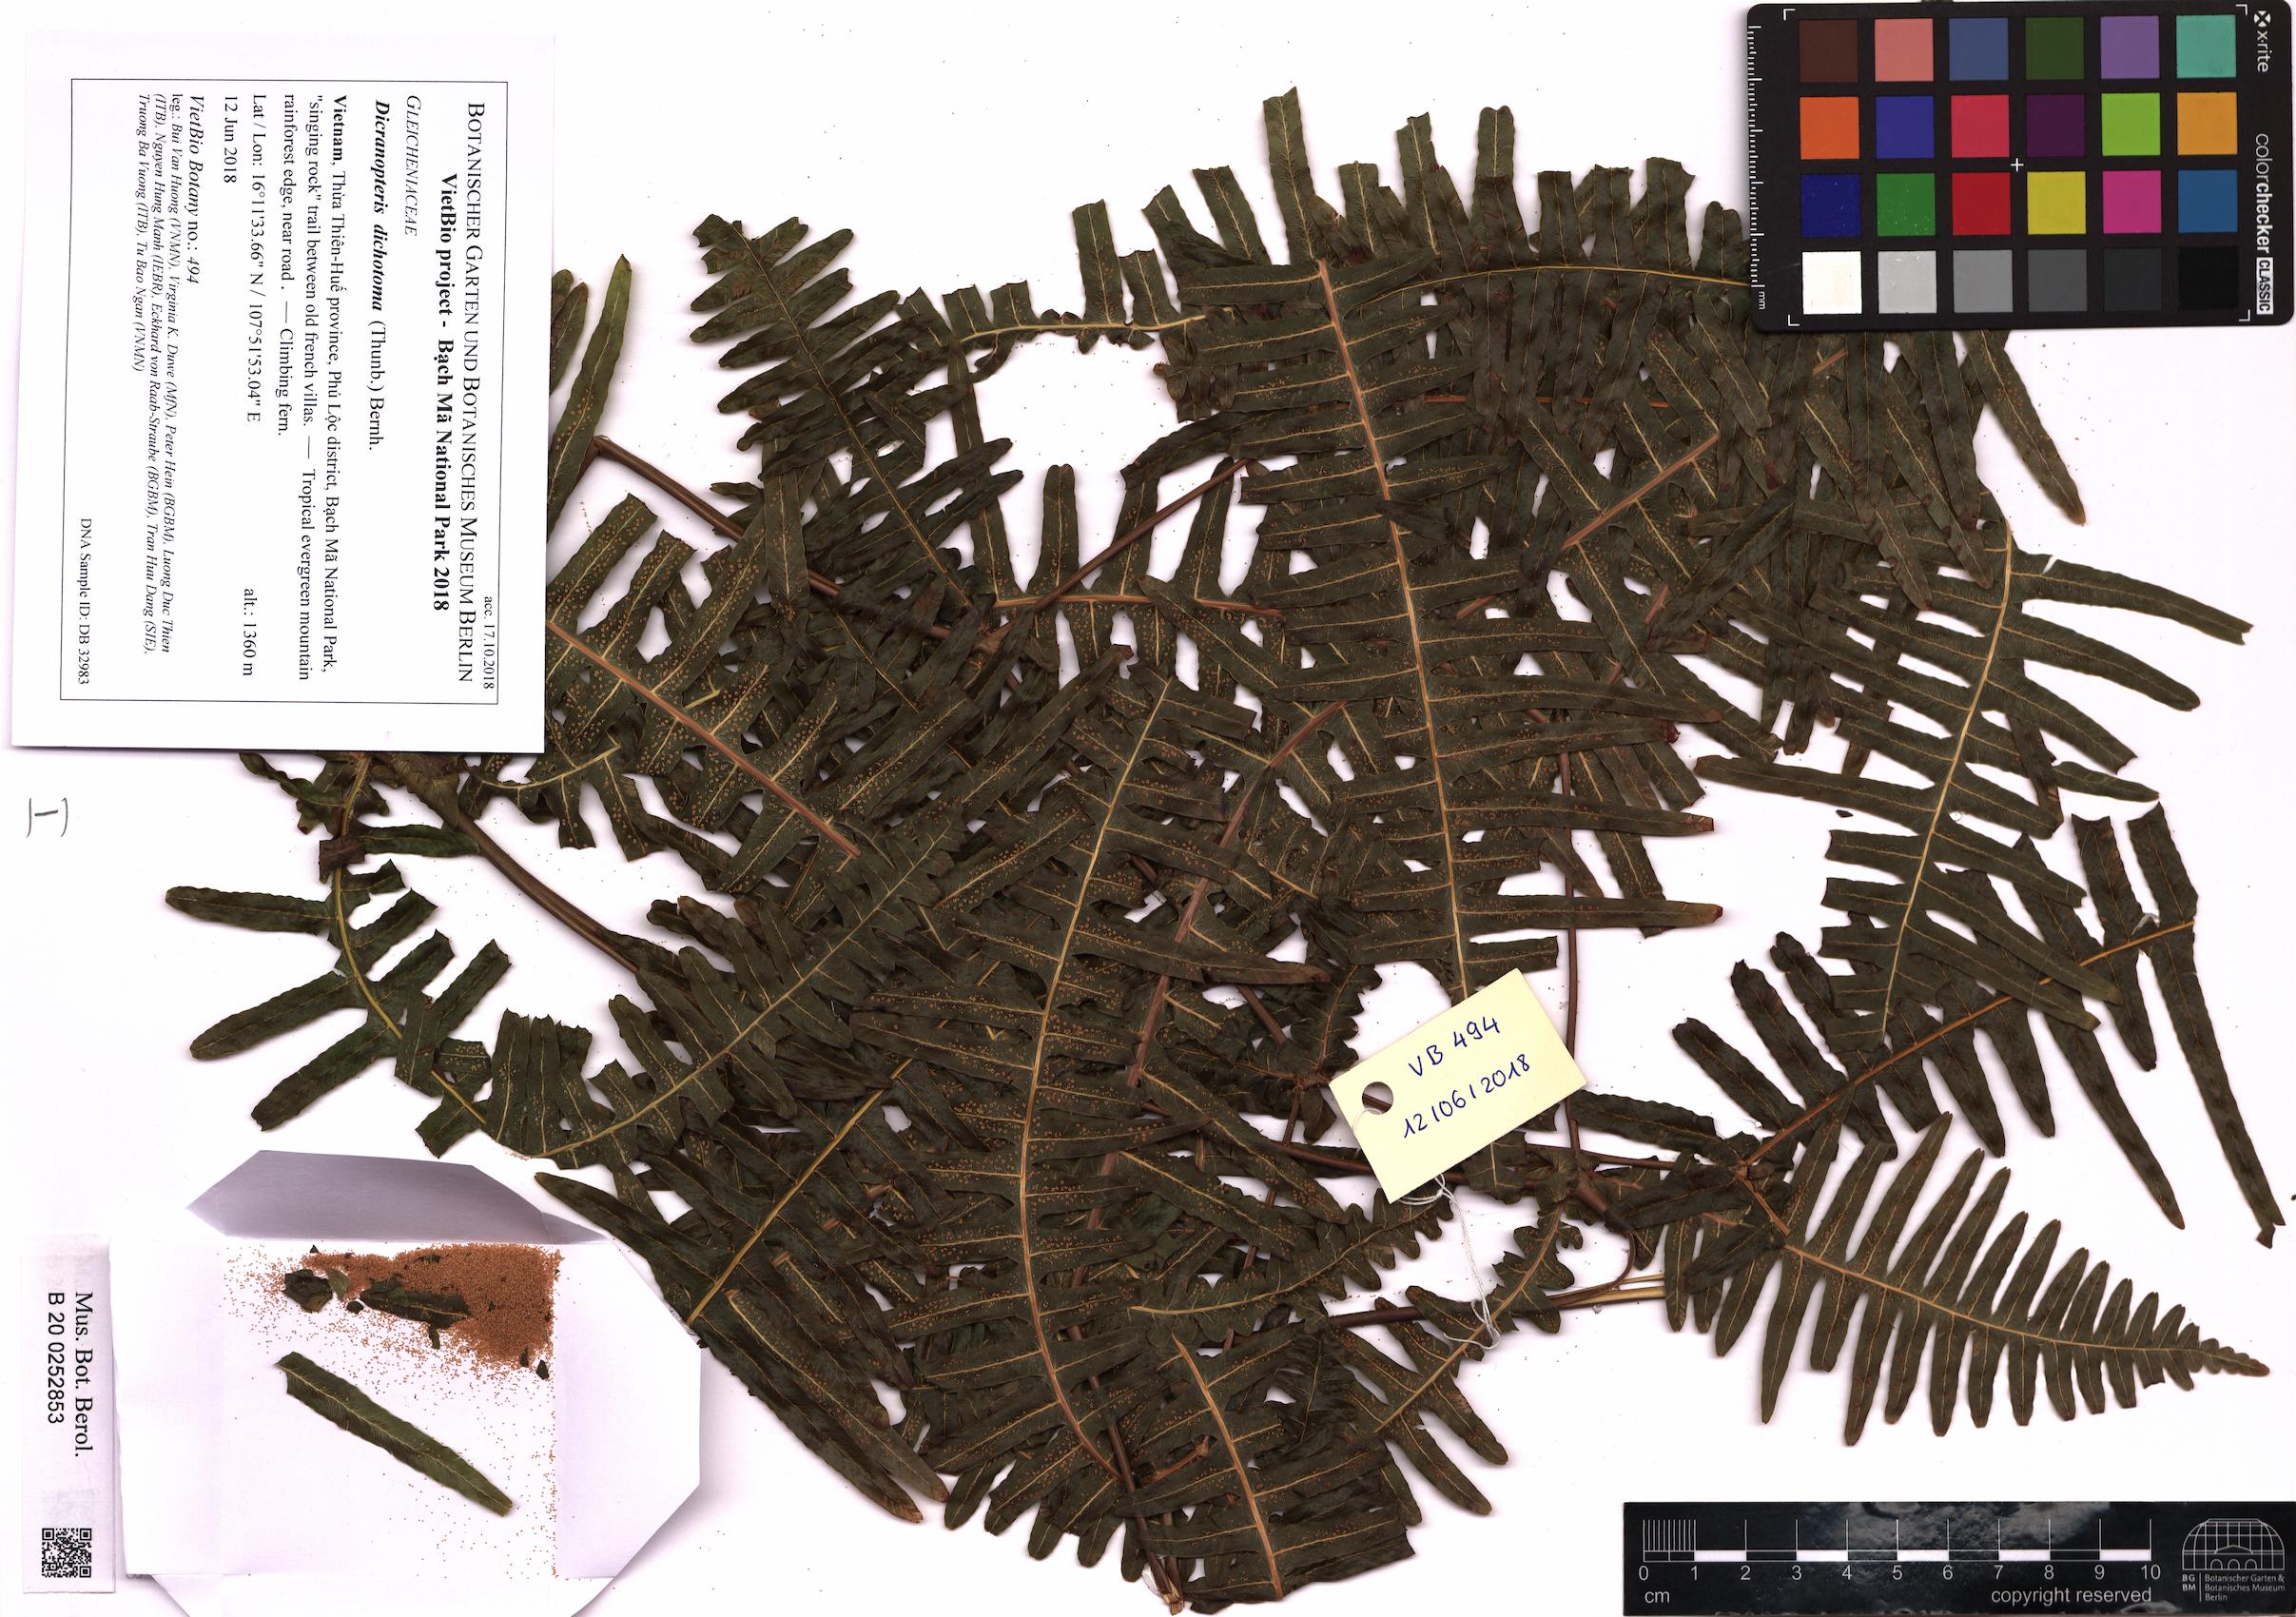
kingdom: Plantae
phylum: Tracheophyta
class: Polypodiopsida
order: Gleicheniales
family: Gleicheniaceae
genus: Dicranopteris
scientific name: Dicranopteris pedata
